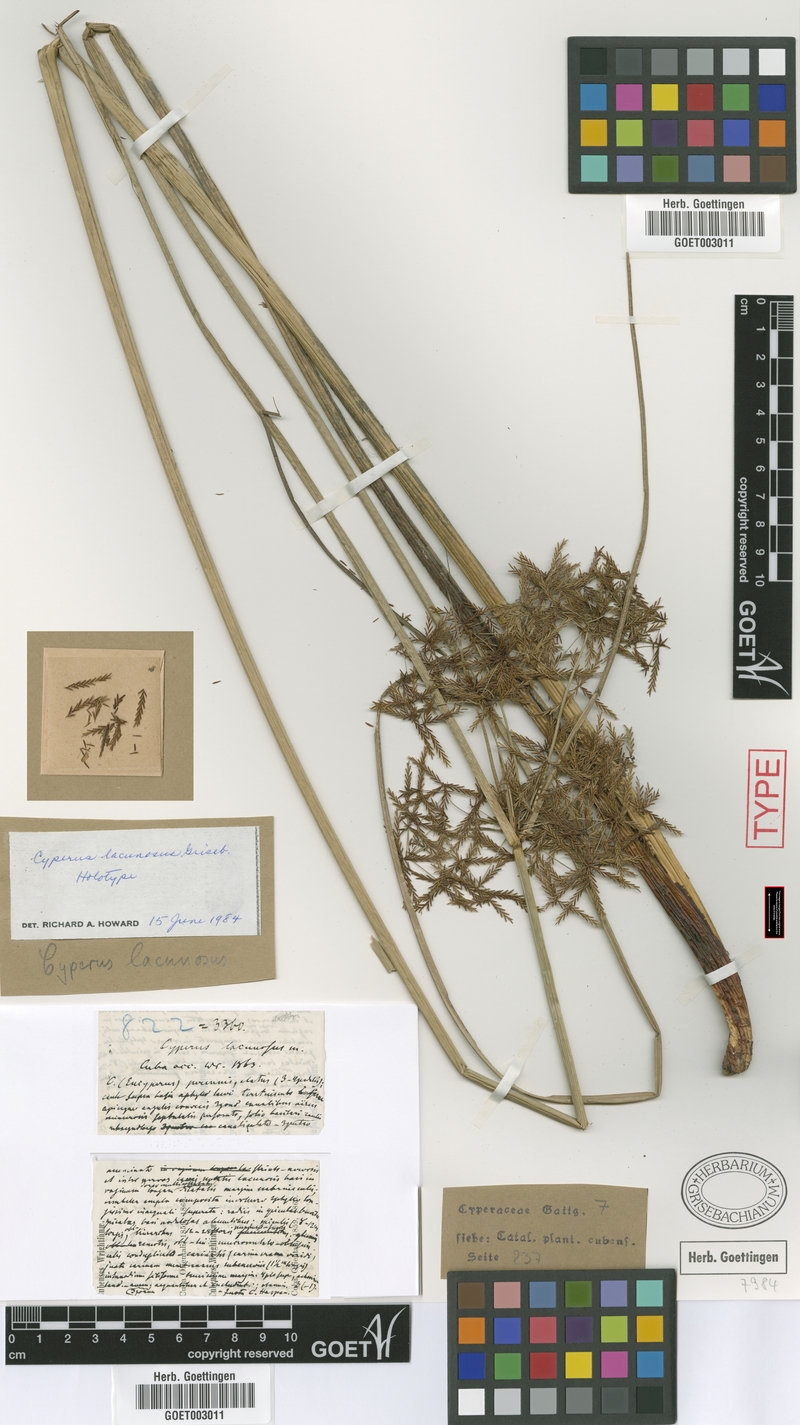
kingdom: Plantae
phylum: Tracheophyta
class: Liliopsida
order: Poales
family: Cyperaceae
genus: Cyperus
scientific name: Cyperus lacunosus
